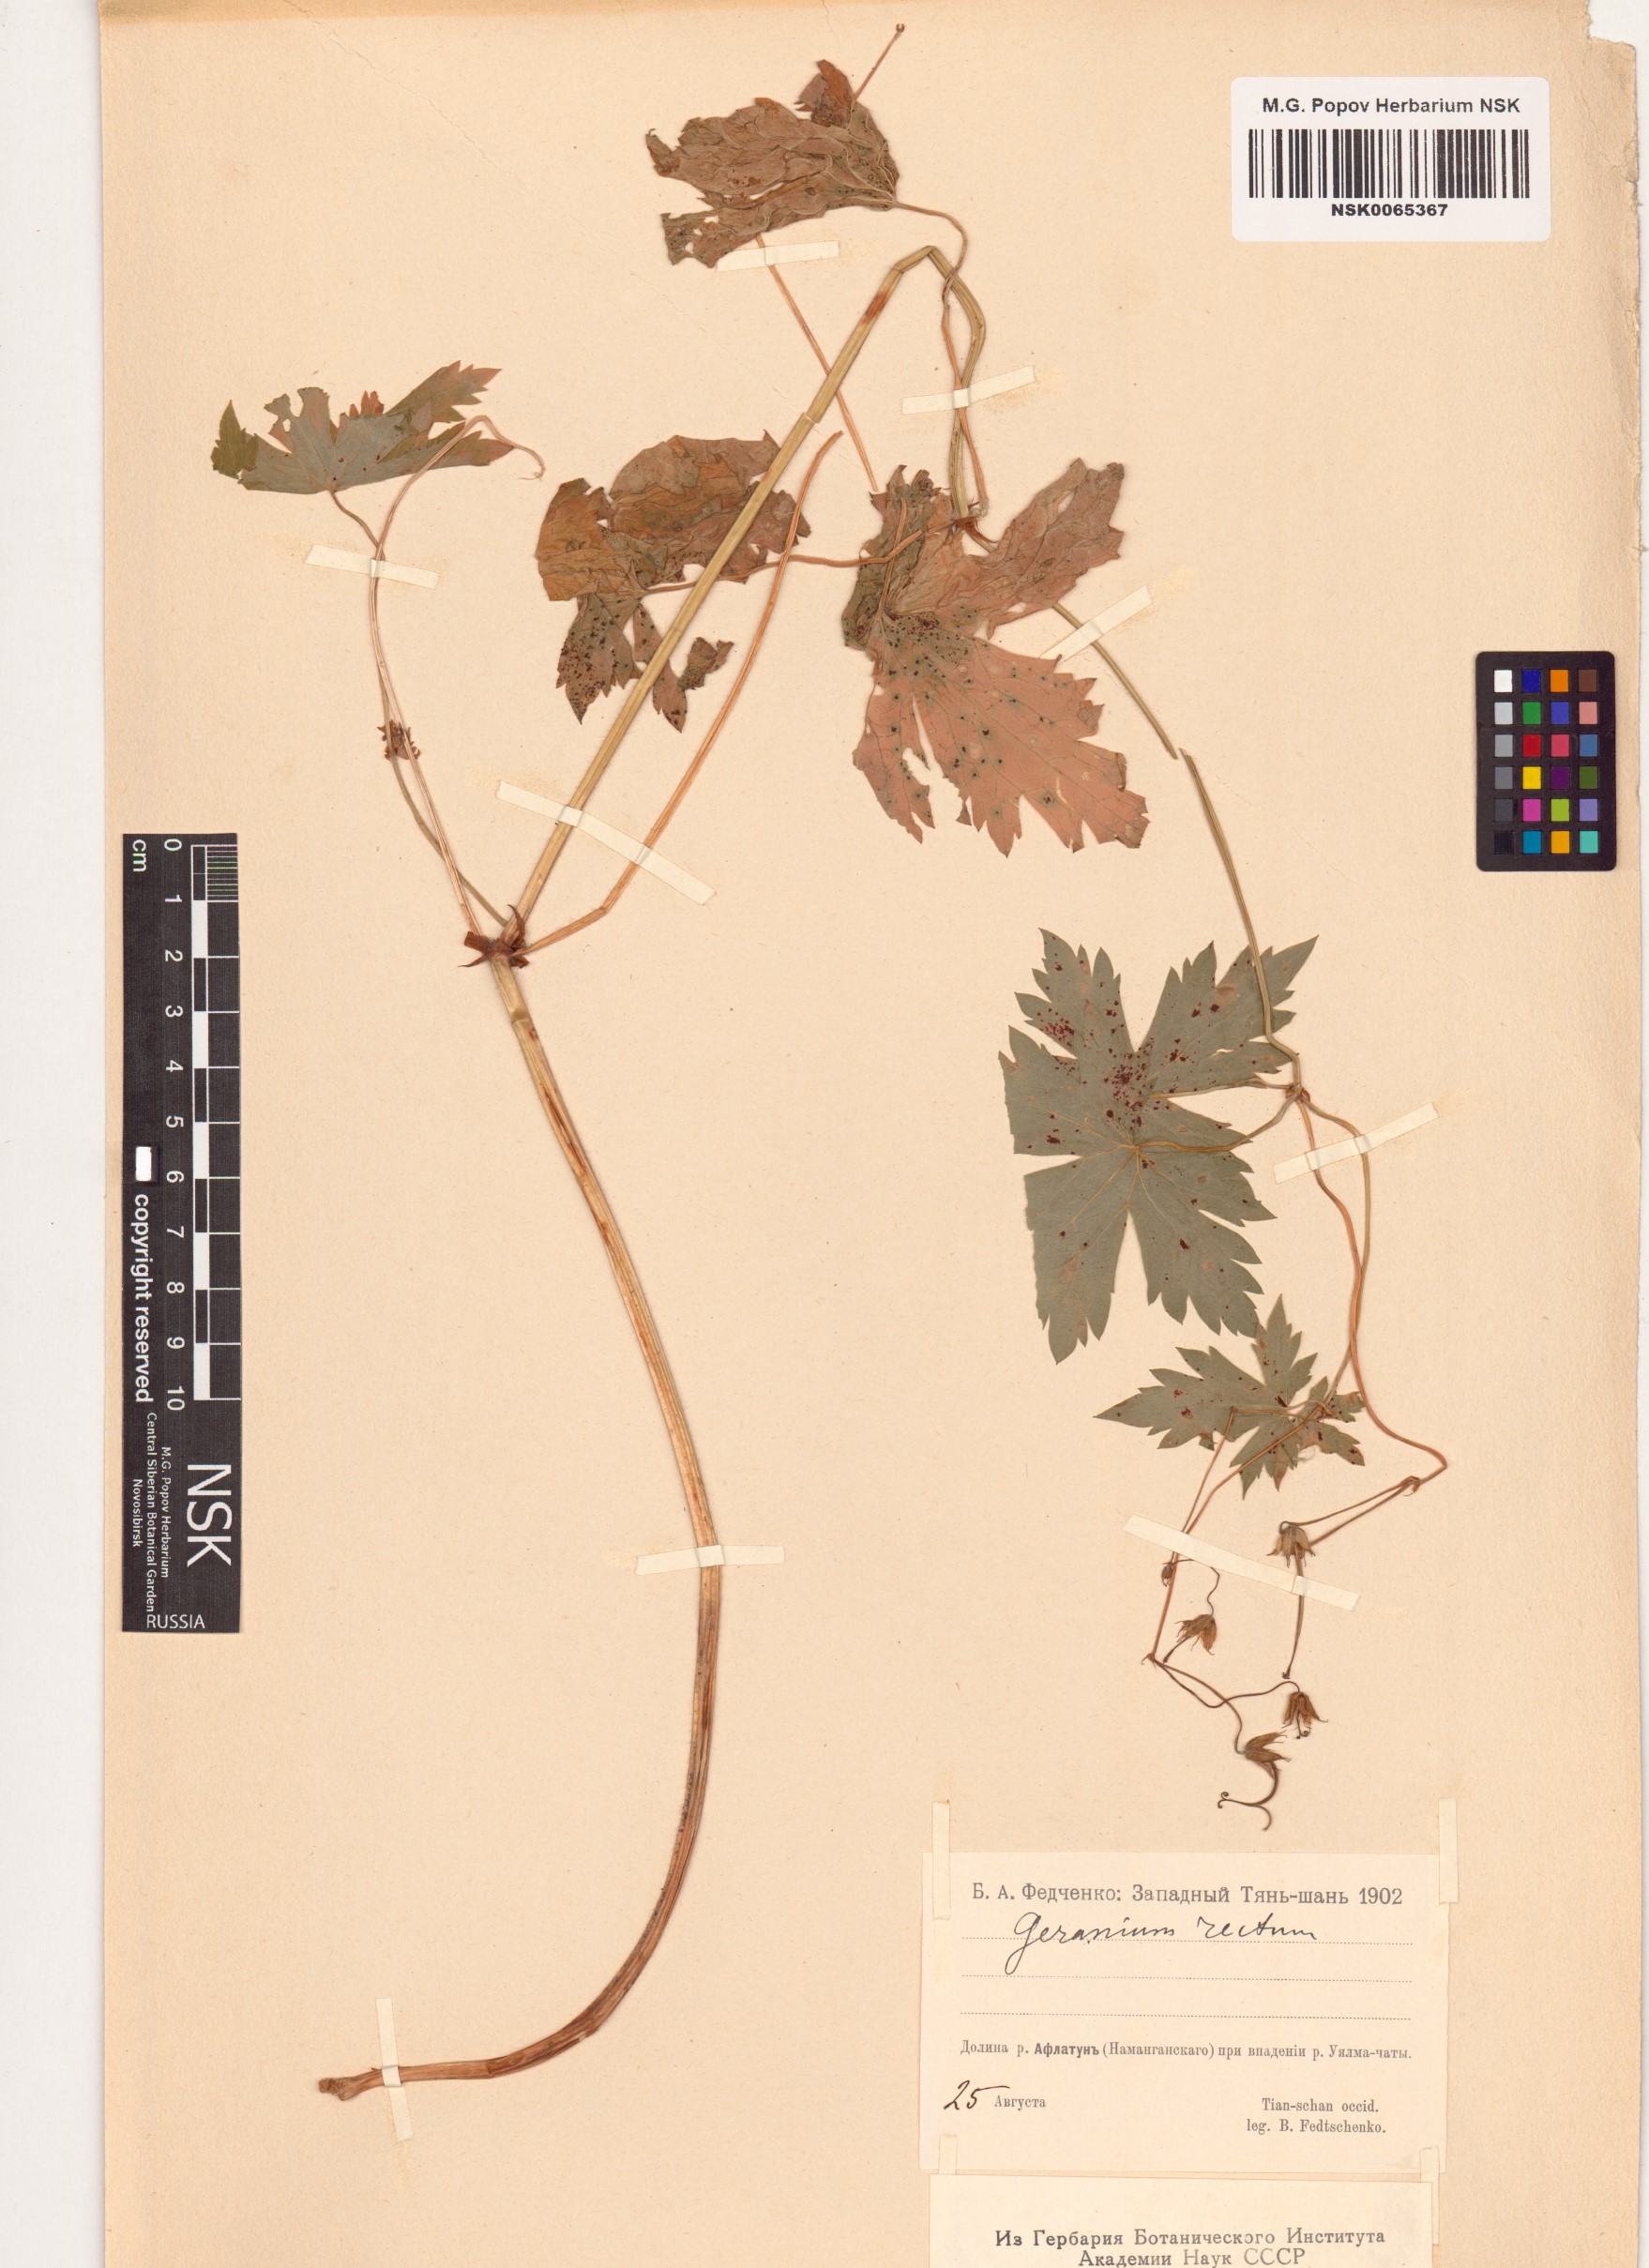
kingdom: Plantae
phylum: Tracheophyta
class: Magnoliopsida
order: Geraniales
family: Geraniaceae
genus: Geranium
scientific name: Geranium rectum
